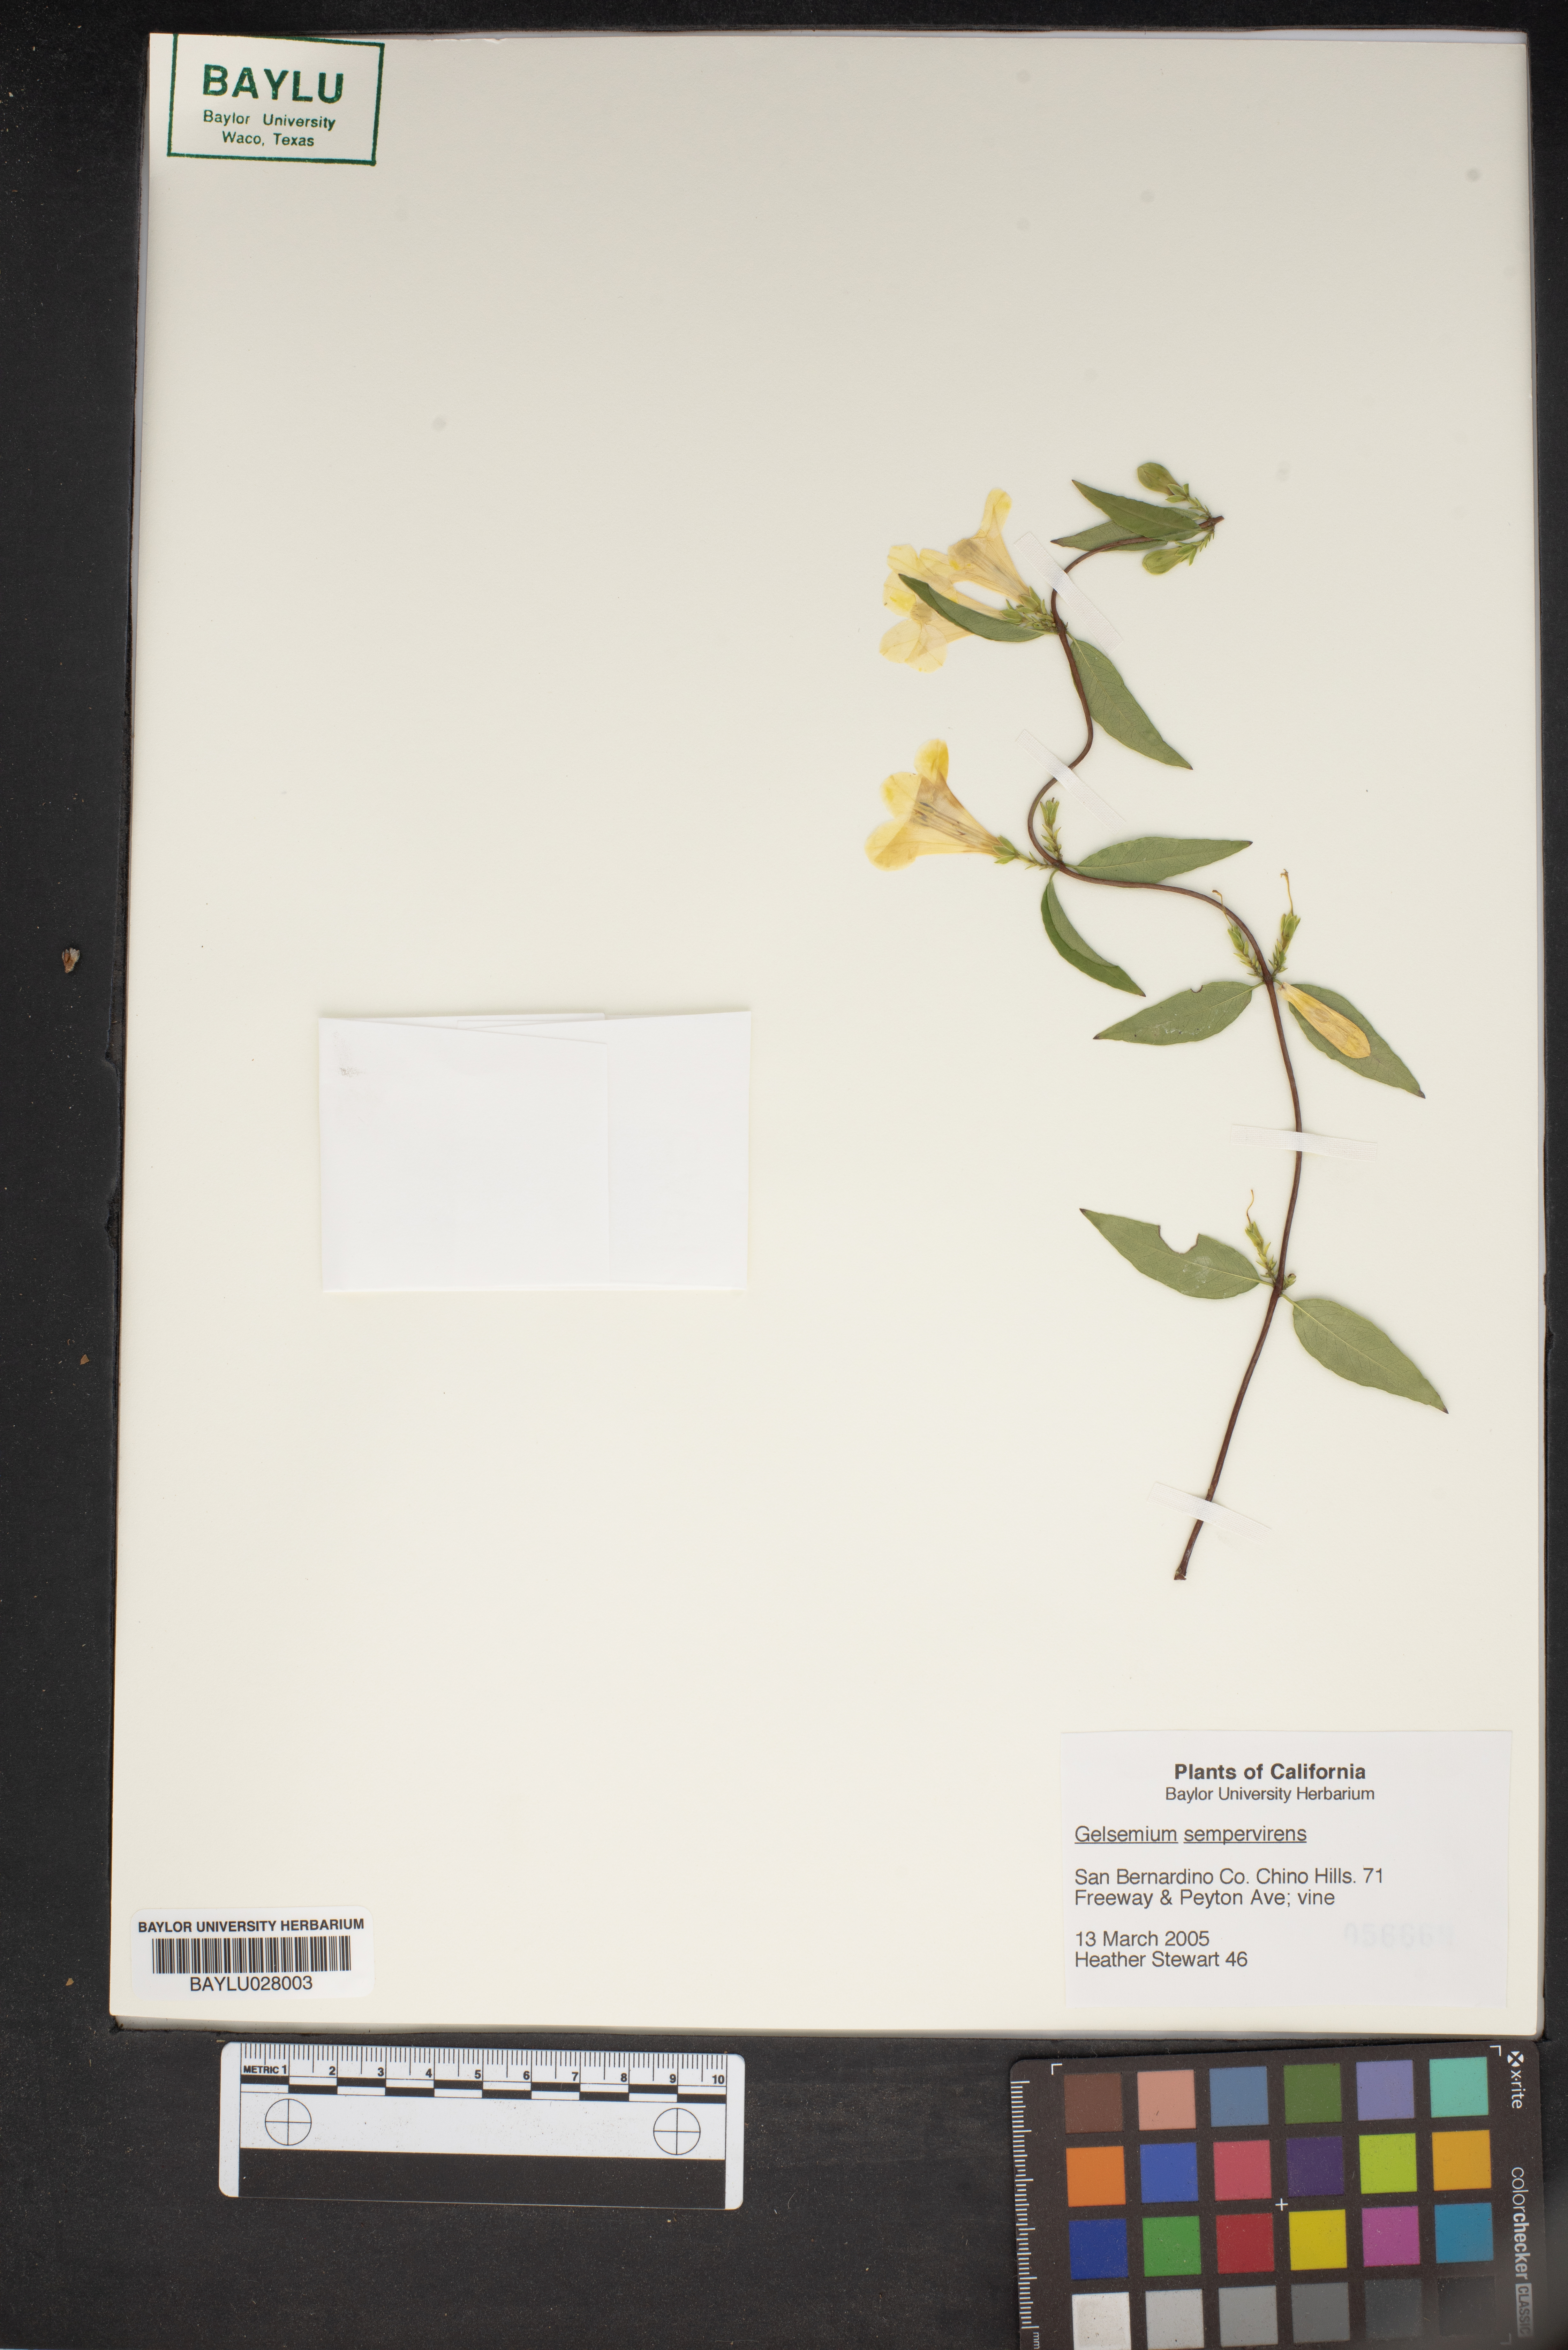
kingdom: Plantae
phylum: Tracheophyta
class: Magnoliopsida
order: Gentianales
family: Gelsemiaceae
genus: Gelsemium
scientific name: Gelsemium sempervirens
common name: Carolina-jasmine
